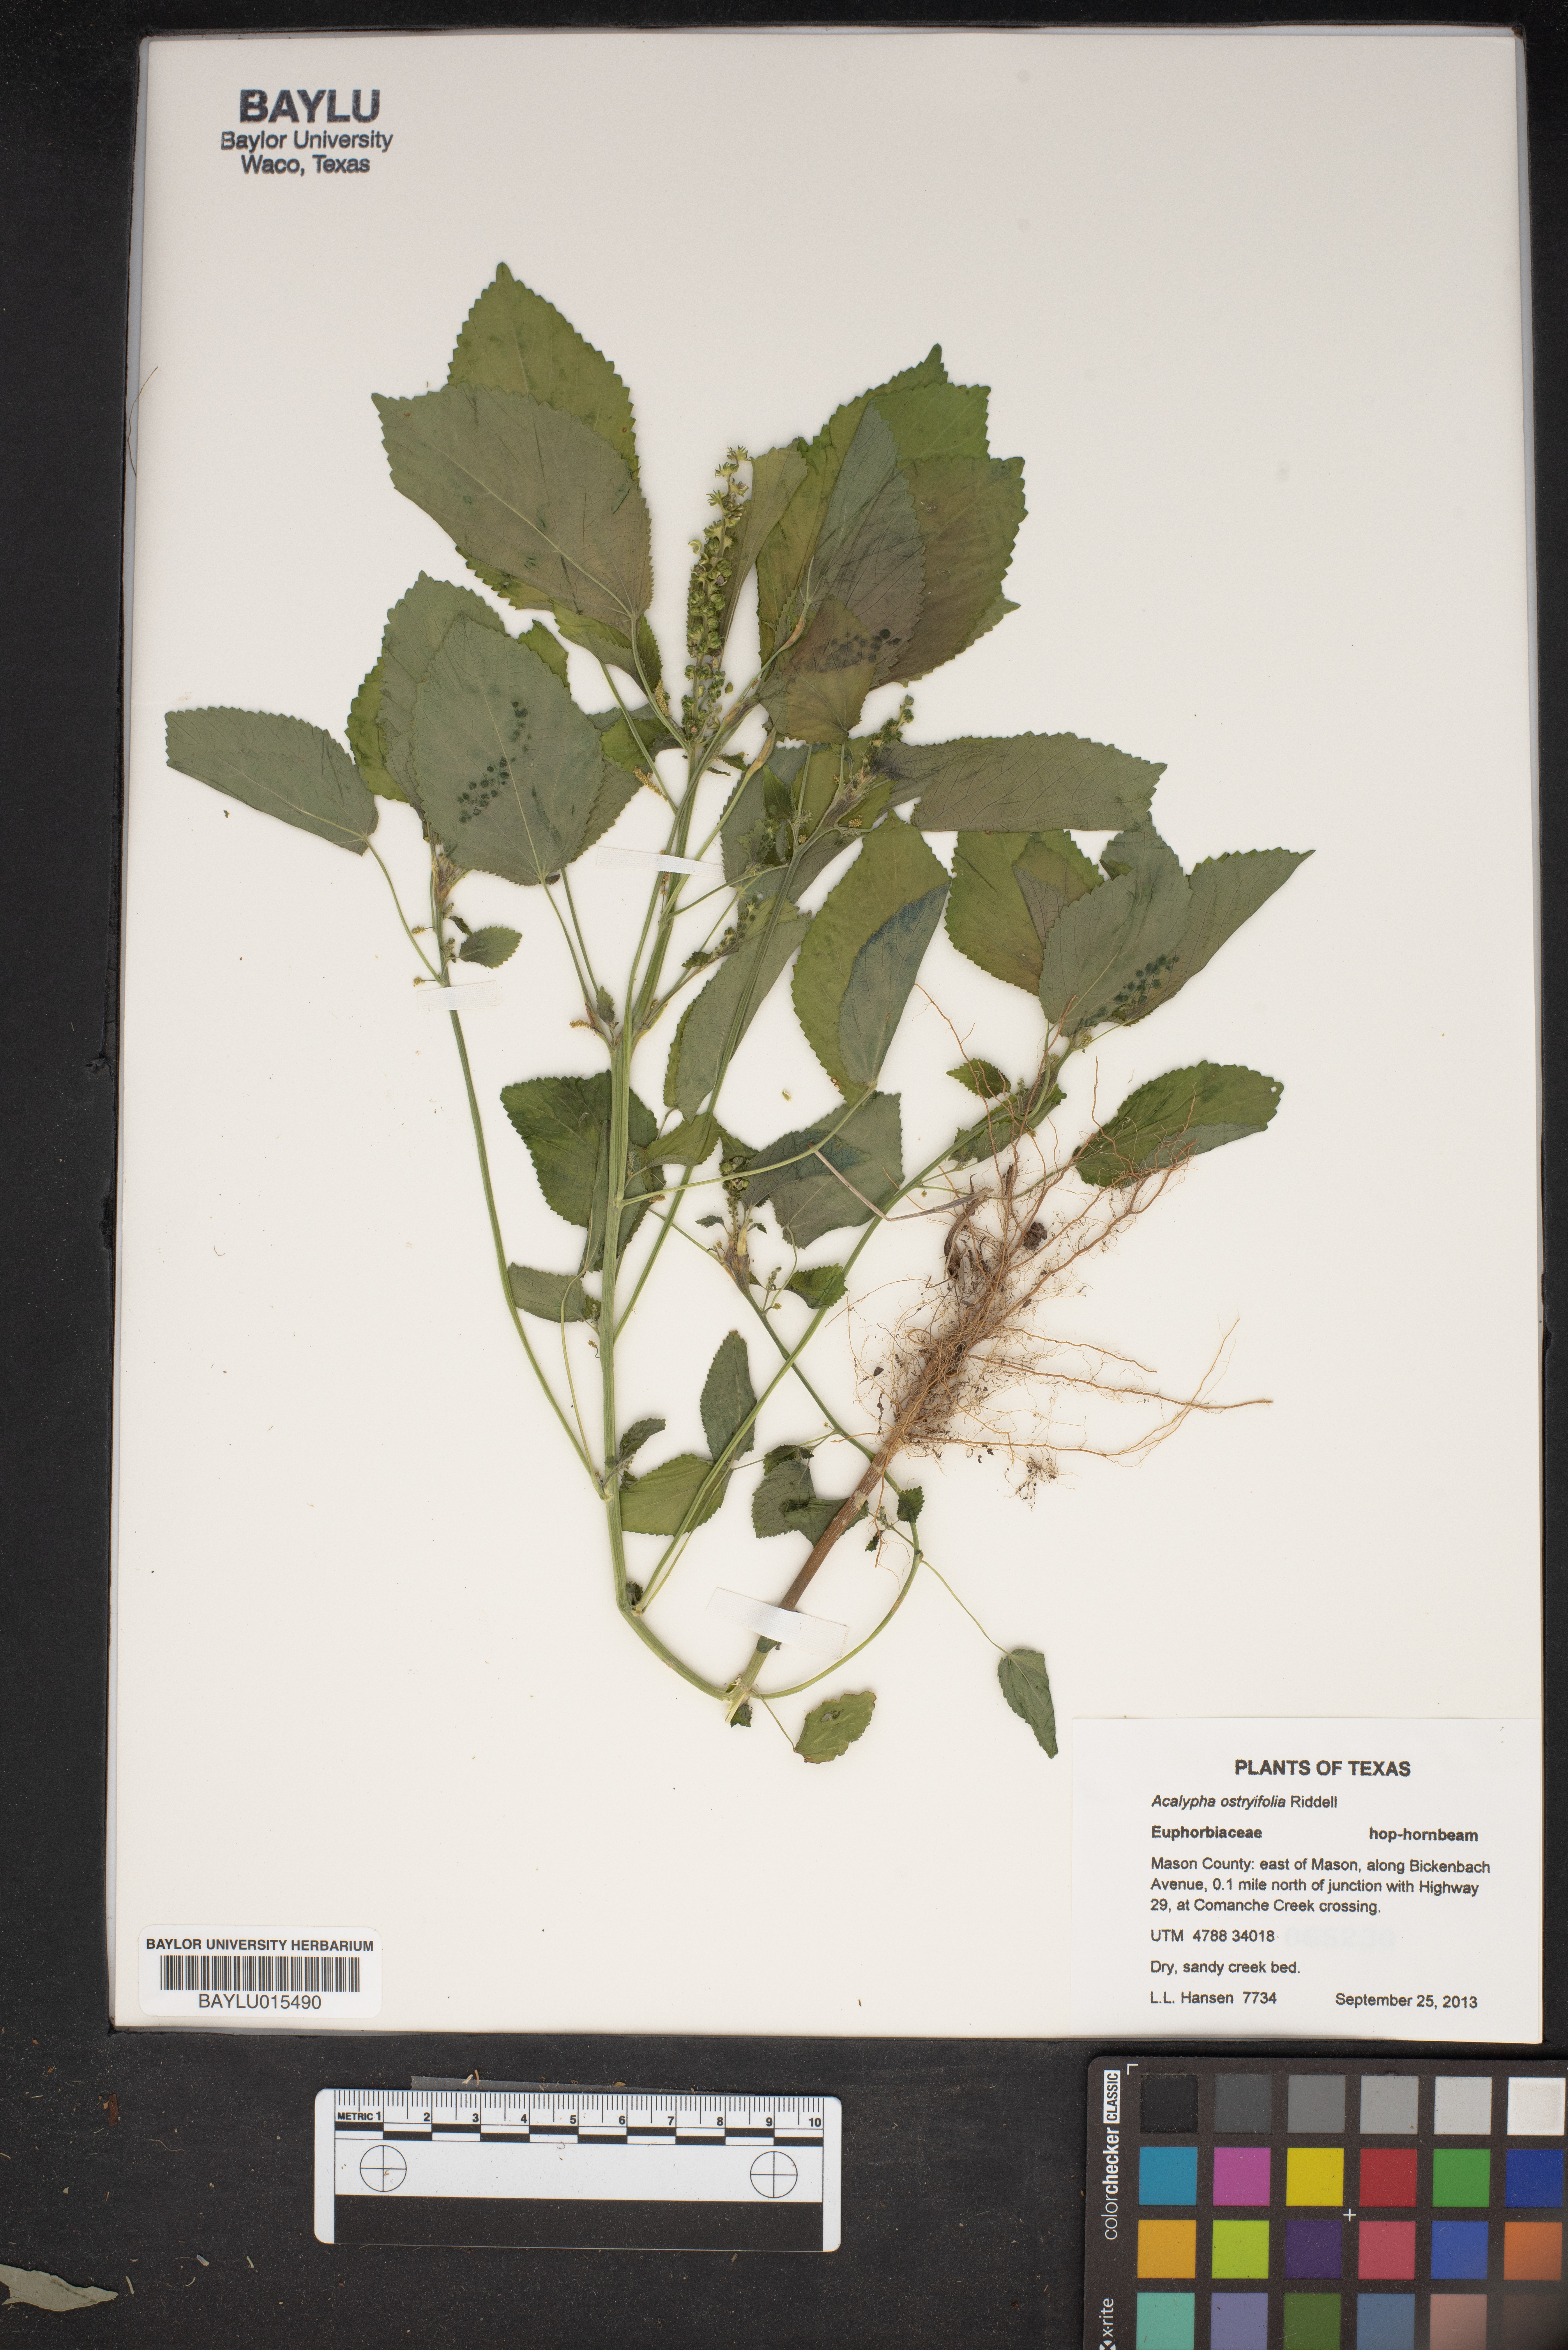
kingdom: Plantae
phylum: Tracheophyta
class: Magnoliopsida
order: Malpighiales
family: Euphorbiaceae
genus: Acalypha
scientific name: Acalypha persimilis
